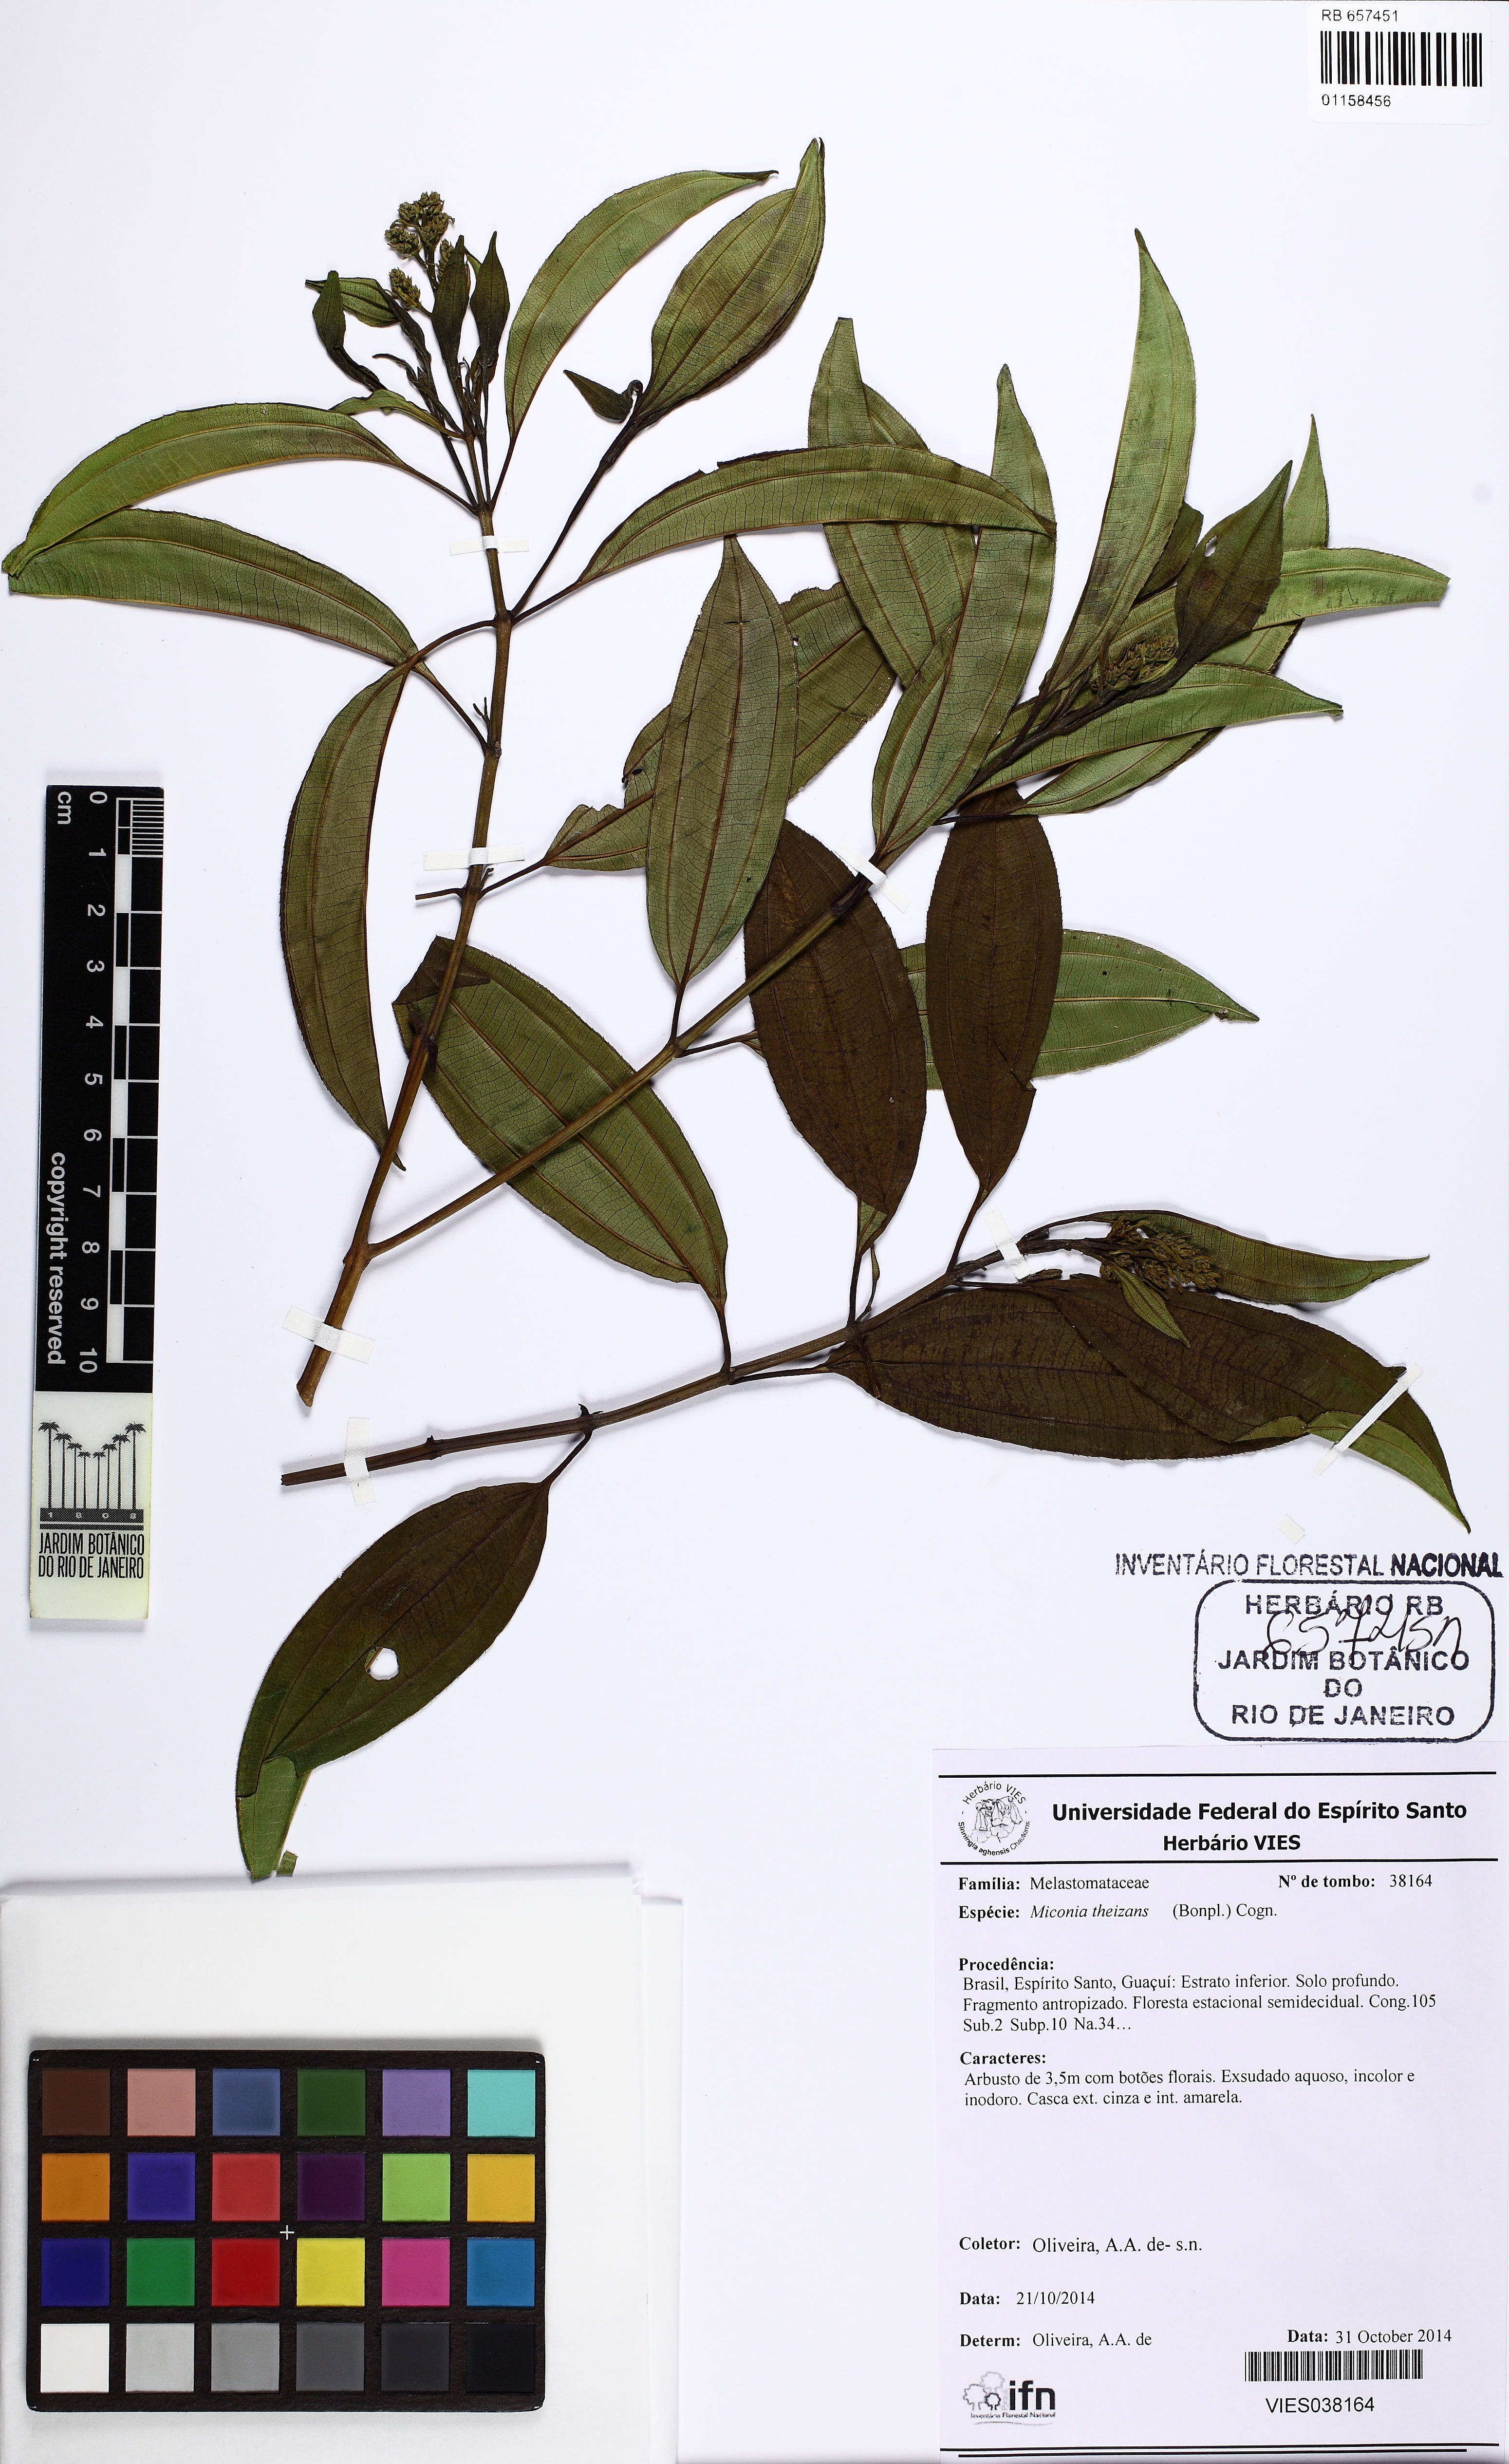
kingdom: Plantae
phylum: Tracheophyta
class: Magnoliopsida
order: Myrtales
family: Melastomataceae
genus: Miconia
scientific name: Miconia theizans
